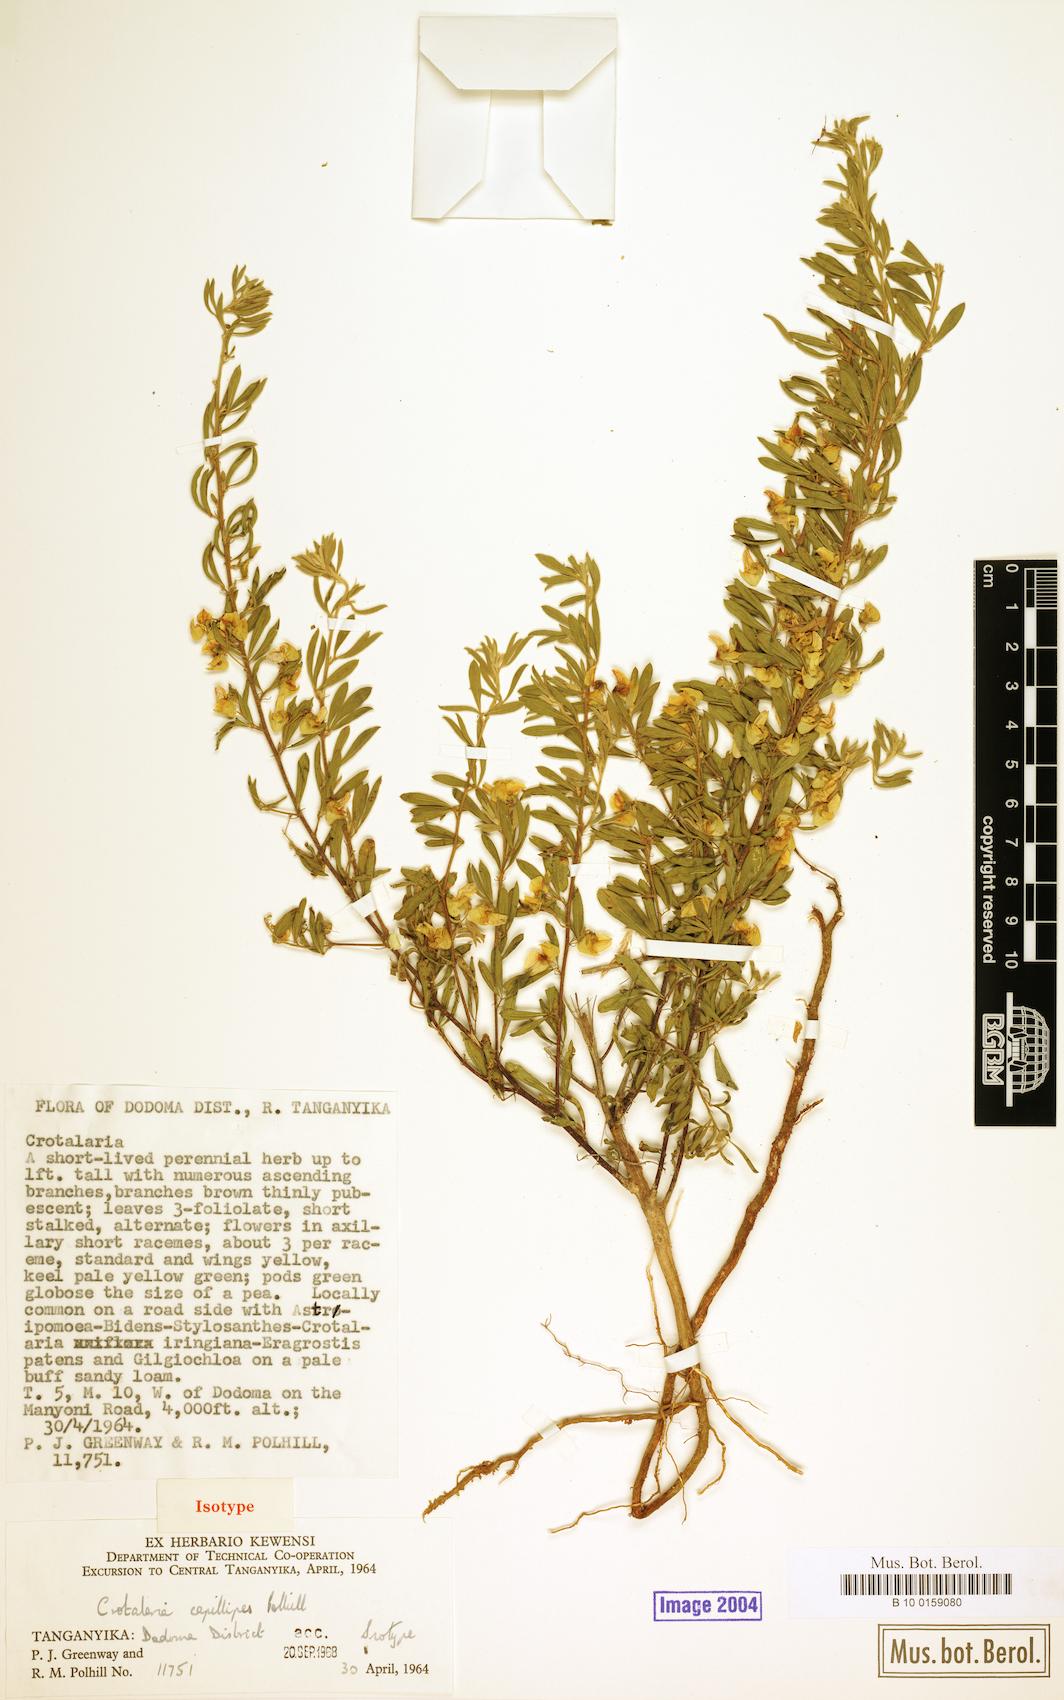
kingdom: Plantae
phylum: Tracheophyta
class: Magnoliopsida
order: Fabales
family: Fabaceae
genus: Crotalaria
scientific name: Crotalaria capillipes
